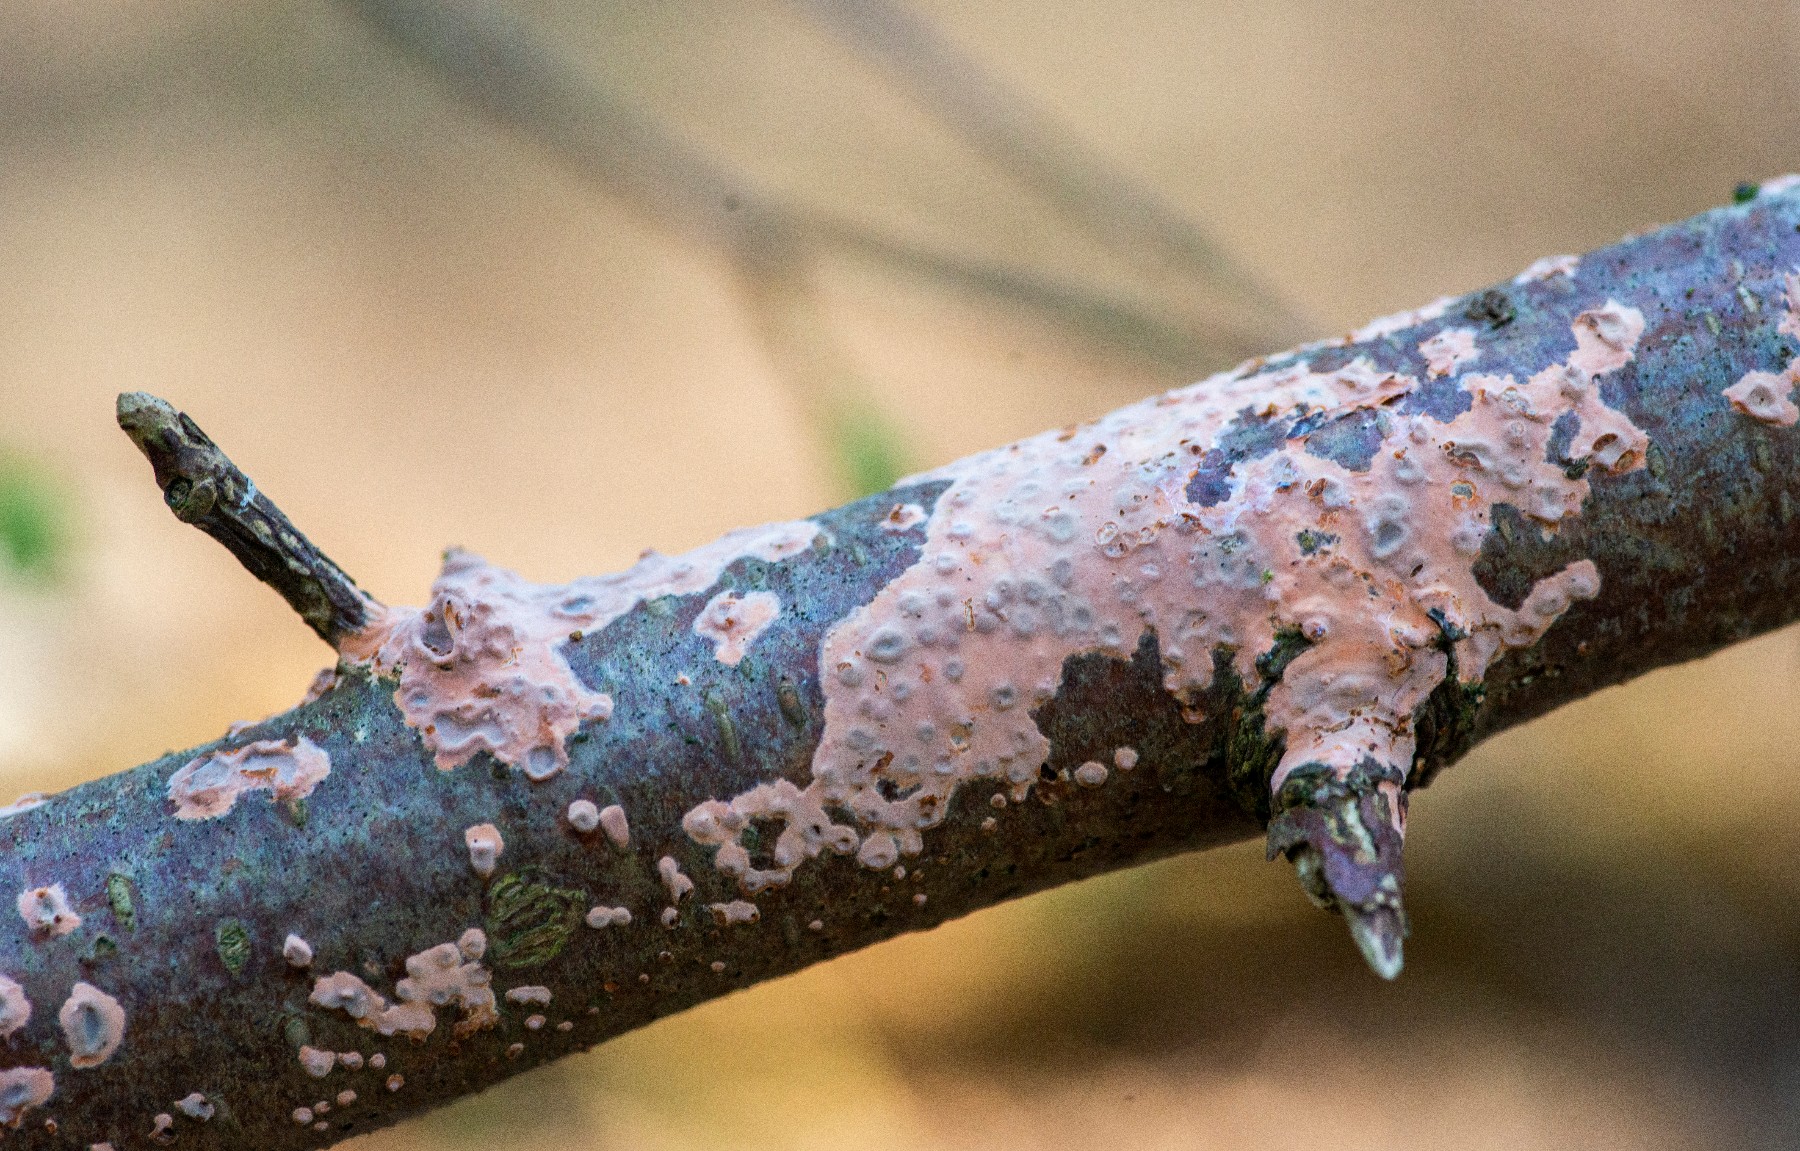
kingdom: Fungi
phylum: Basidiomycota
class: Agaricomycetes
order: Russulales
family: Peniophoraceae
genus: Peniophora
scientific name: Peniophora incarnata
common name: laksefarvet voksskind
